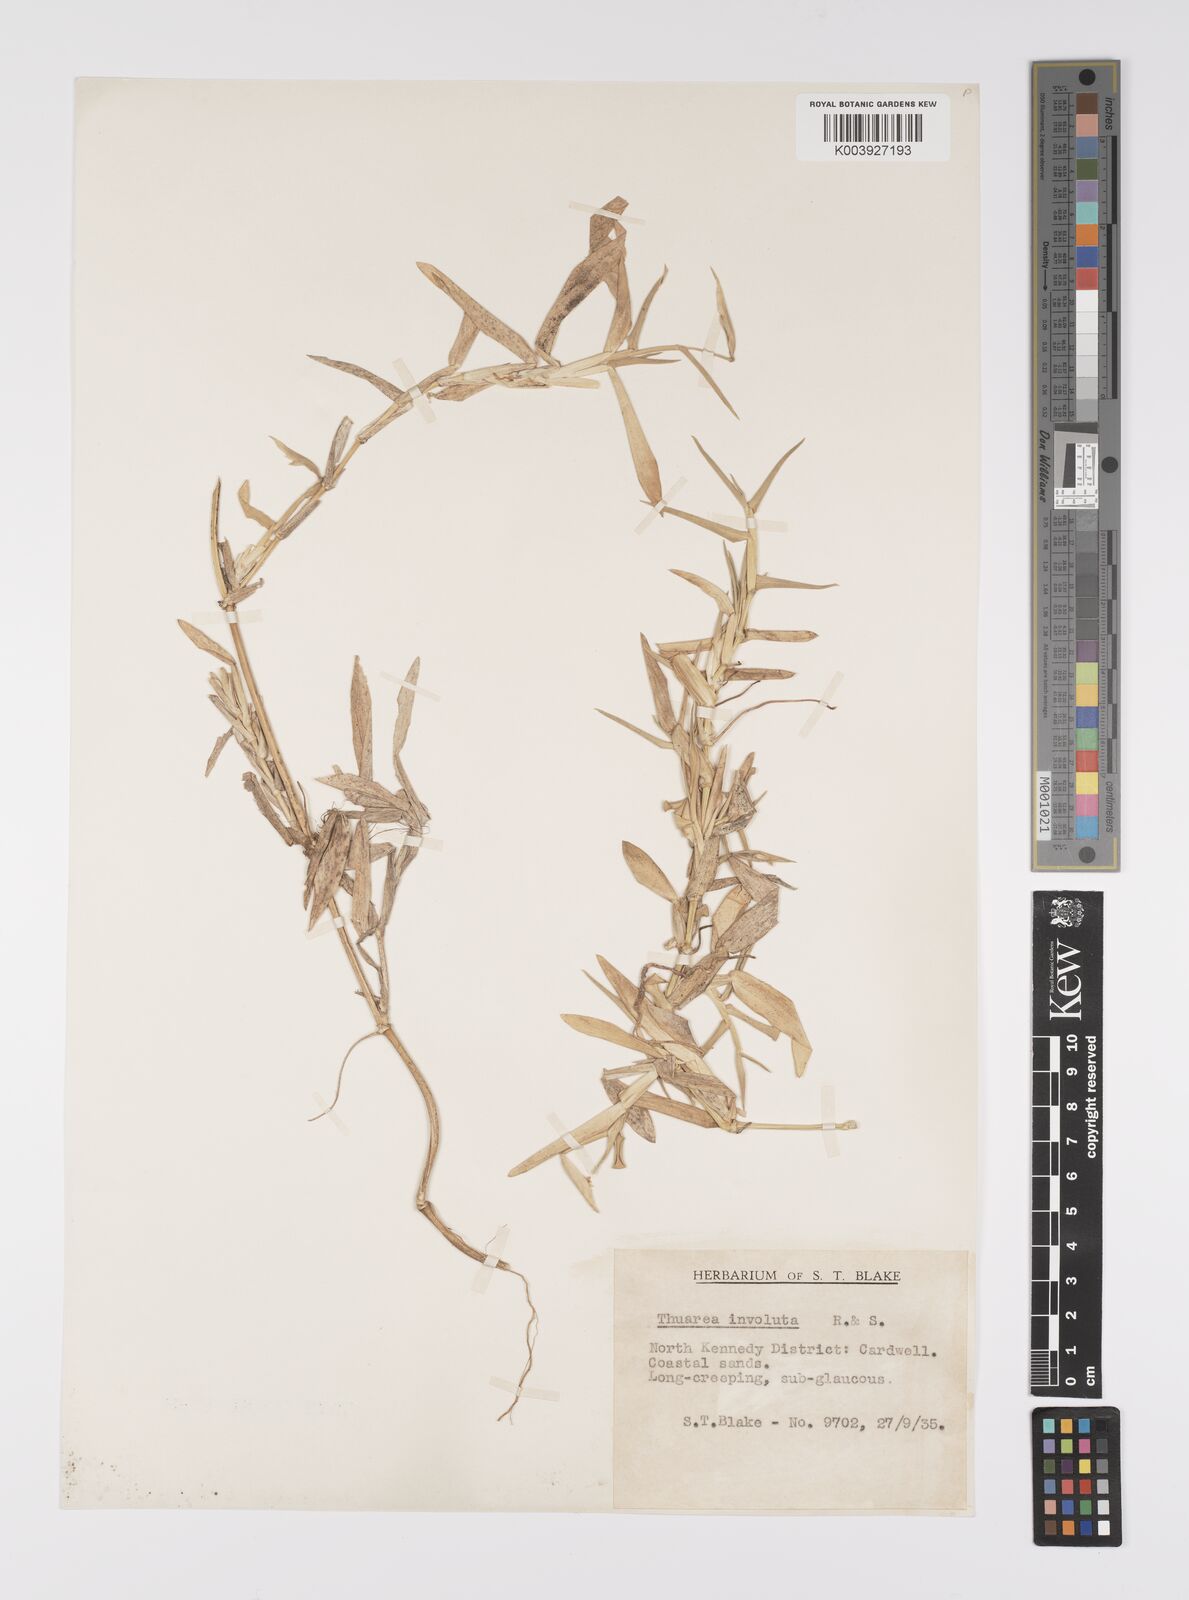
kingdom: Plantae
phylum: Tracheophyta
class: Liliopsida
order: Poales
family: Poaceae
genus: Thuarea
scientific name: Thuarea involuta
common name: Tropical beach grass
